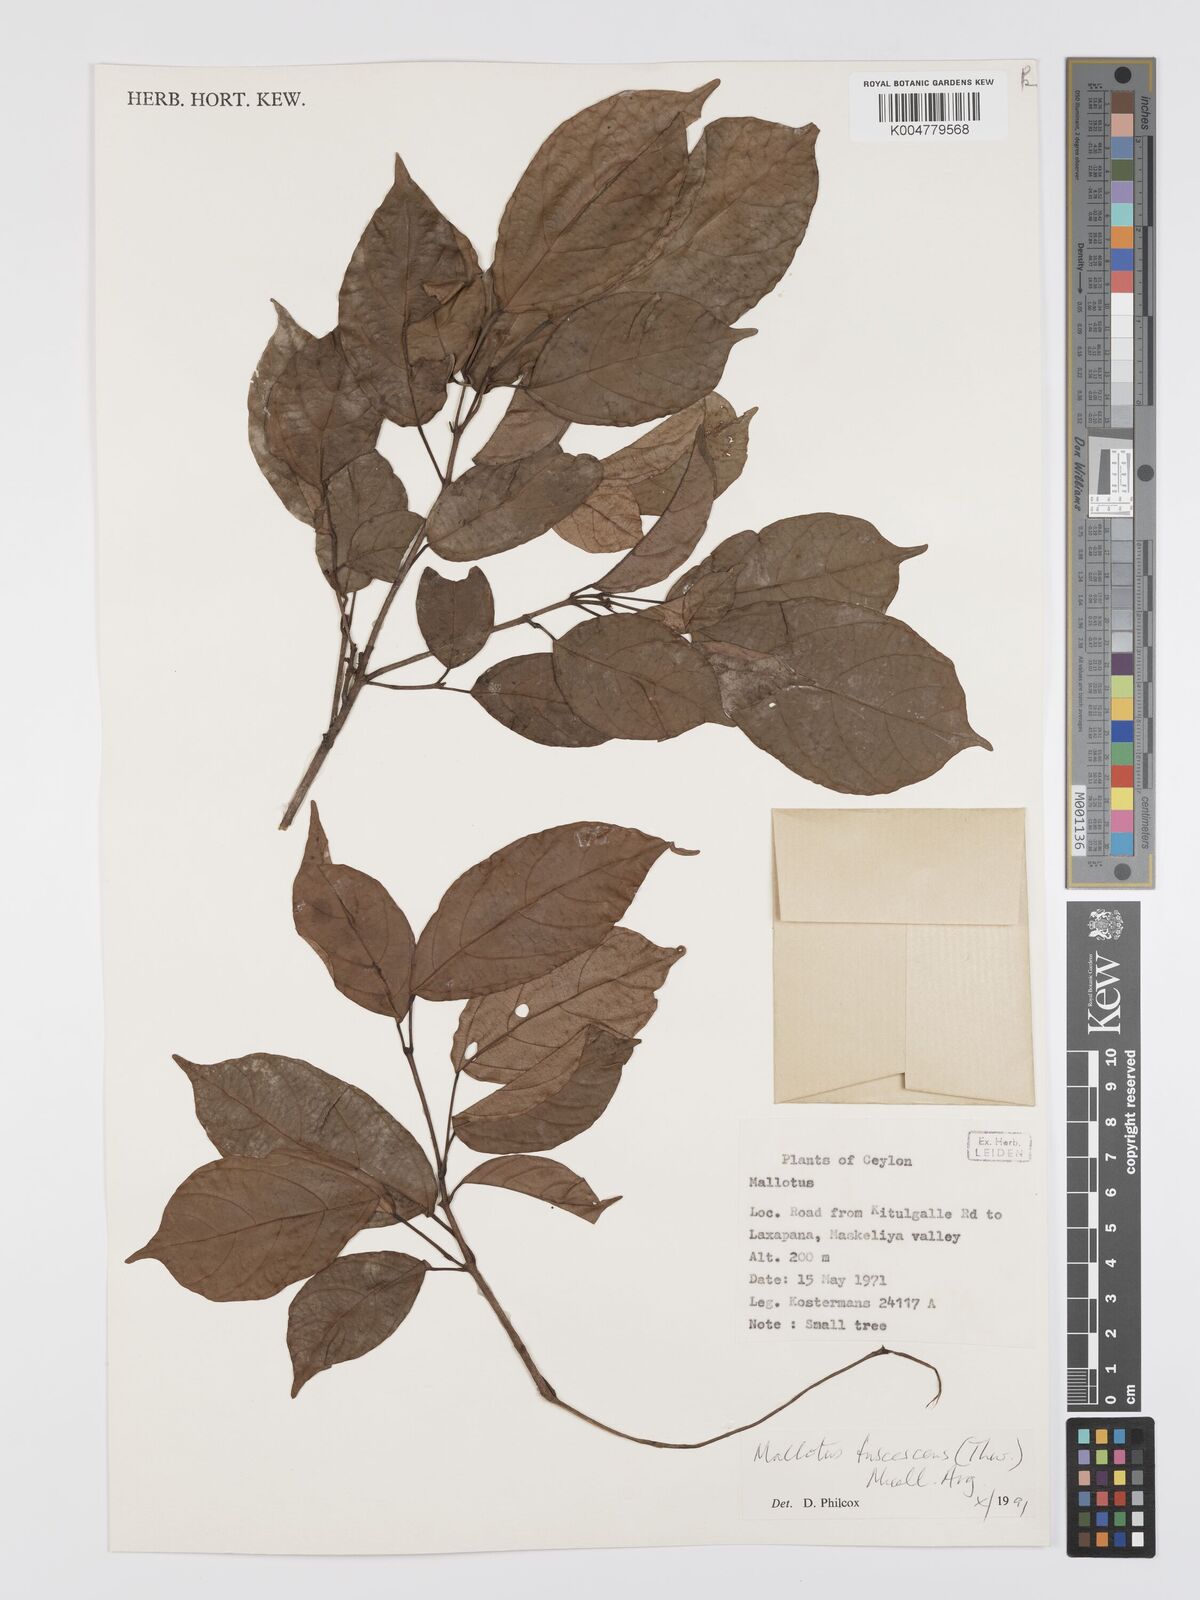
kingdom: Plantae
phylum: Tracheophyta
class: Magnoliopsida
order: Malpighiales
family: Euphorbiaceae
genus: Mallotus
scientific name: Mallotus fuscescens
